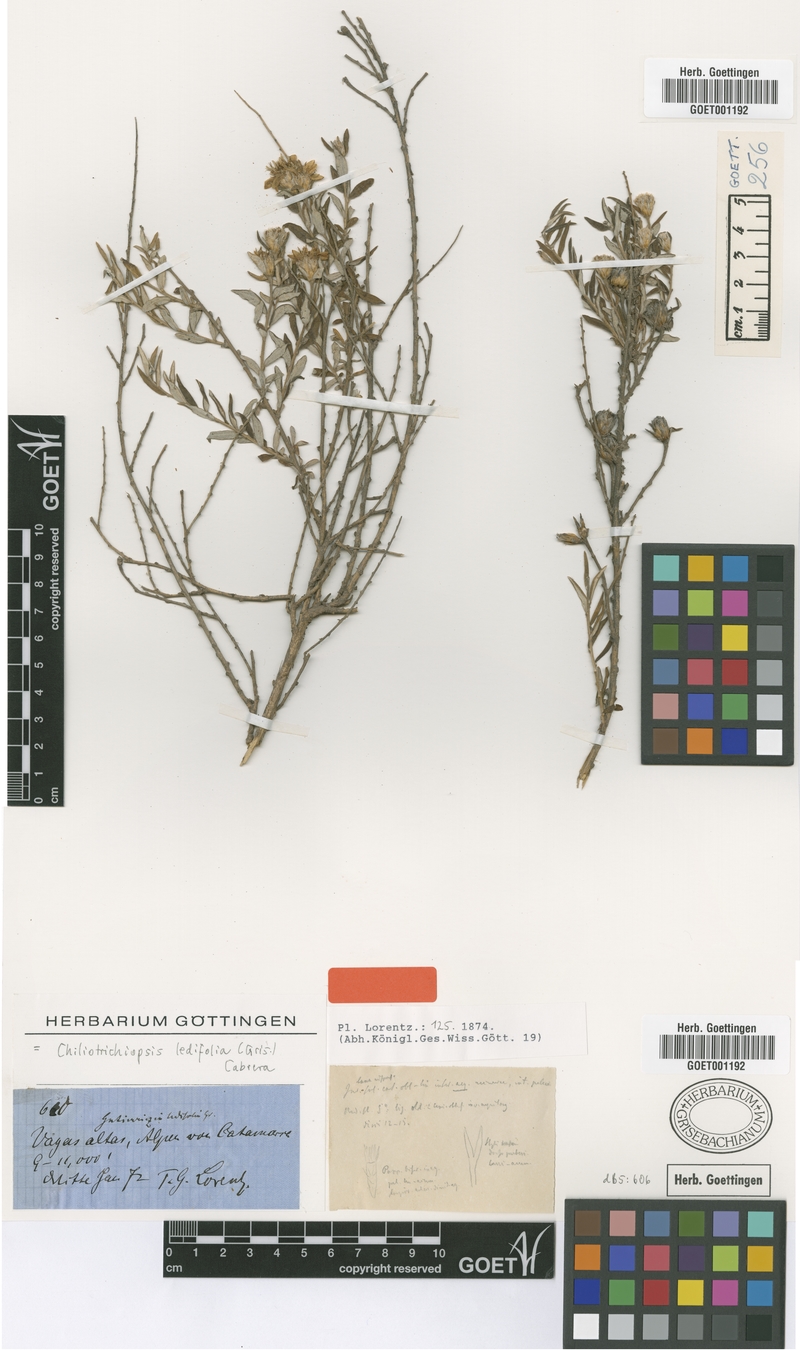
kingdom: Plantae
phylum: Tracheophyta
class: Magnoliopsida
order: Asterales
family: Asteraceae
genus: Chiliotrichiopsis
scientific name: Chiliotrichiopsis ledifolia
